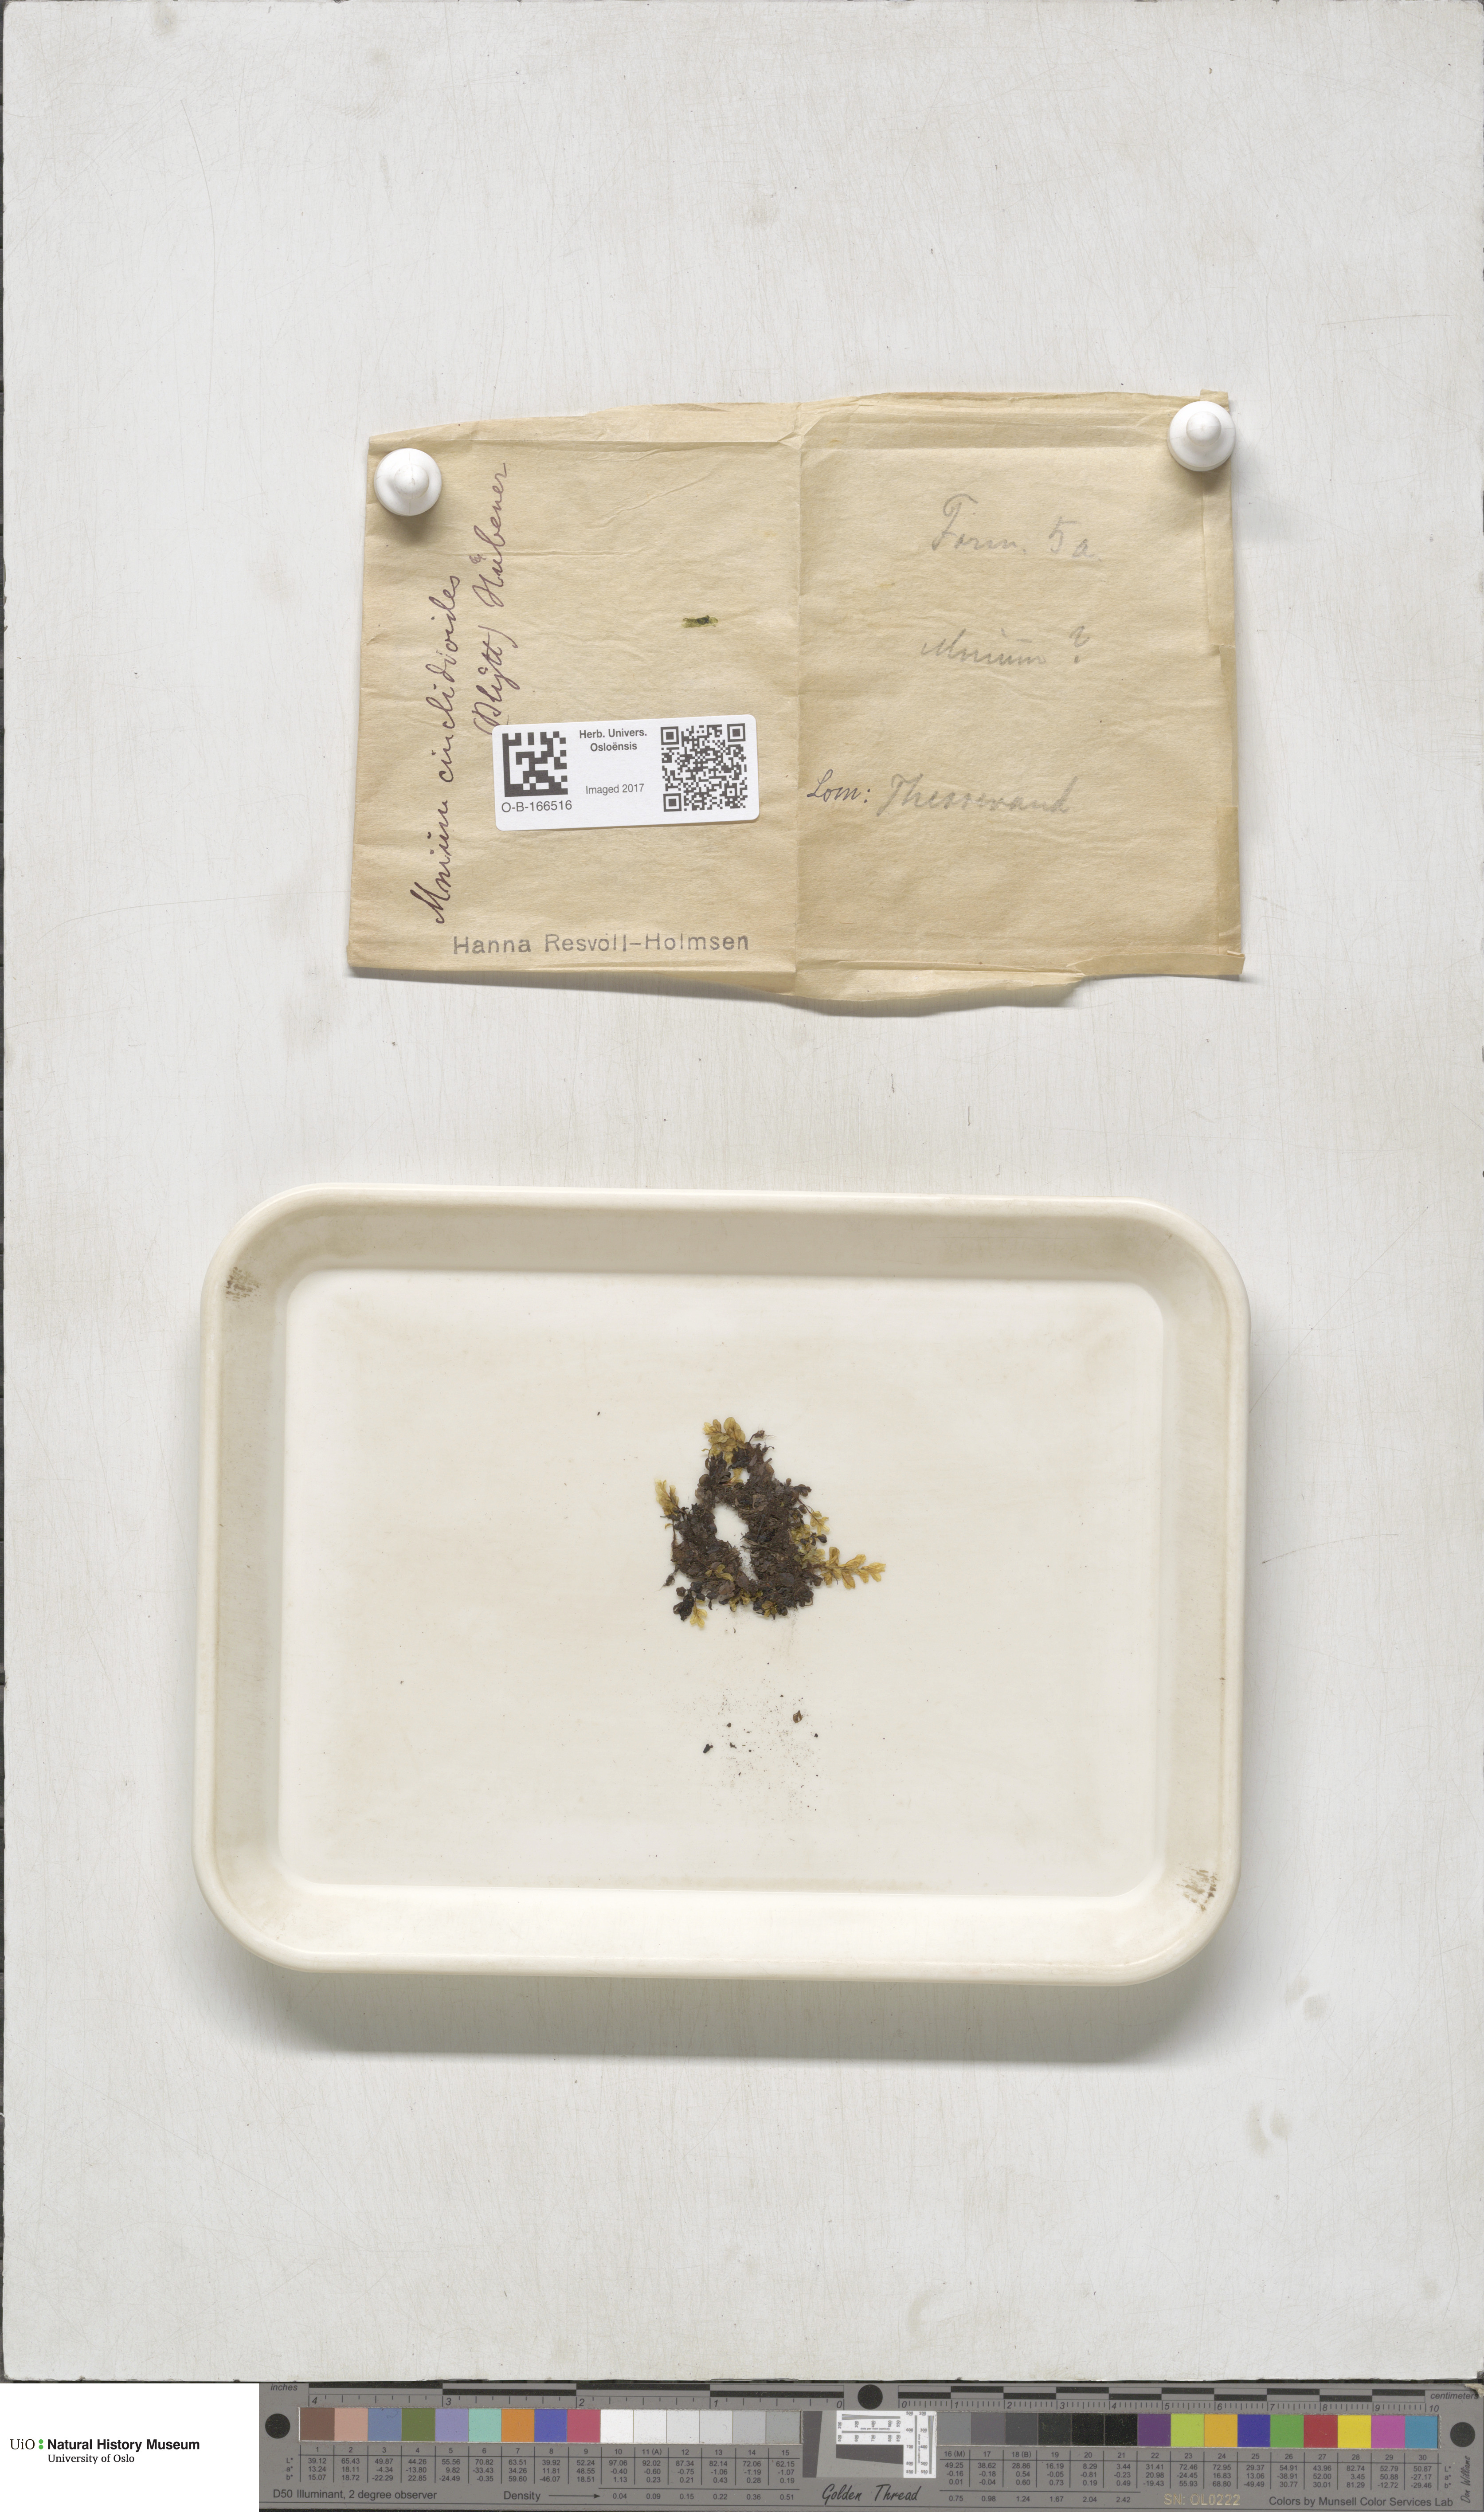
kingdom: Plantae
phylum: Bryophyta
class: Bryopsida
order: Bryales
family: Mniaceae
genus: Pseudobryum
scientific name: Pseudobryum cinclidioides
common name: River thyme moss
